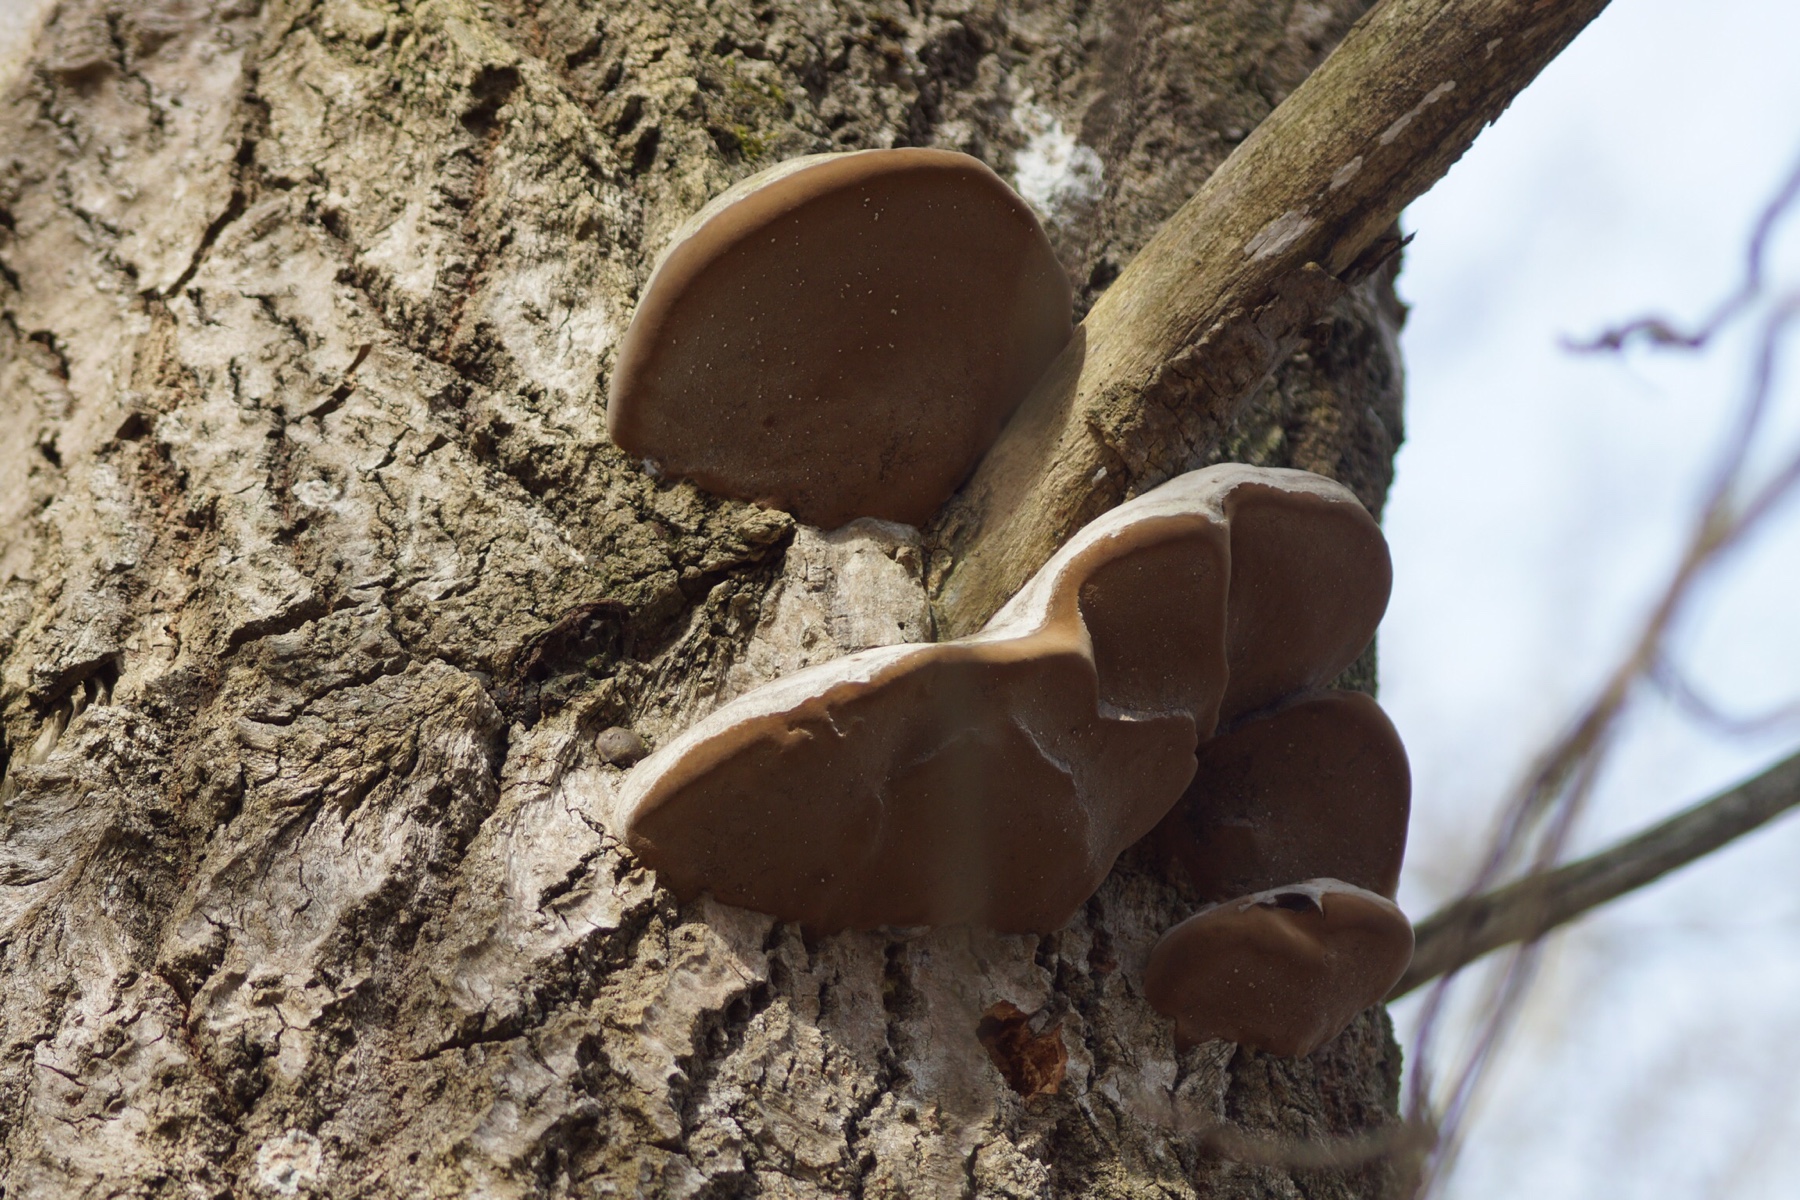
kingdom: Fungi
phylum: Basidiomycota
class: Agaricomycetes
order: Hymenochaetales
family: Hymenochaetaceae
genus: Phellinus
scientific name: Phellinus populicola
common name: poppel-ildporesvamp
